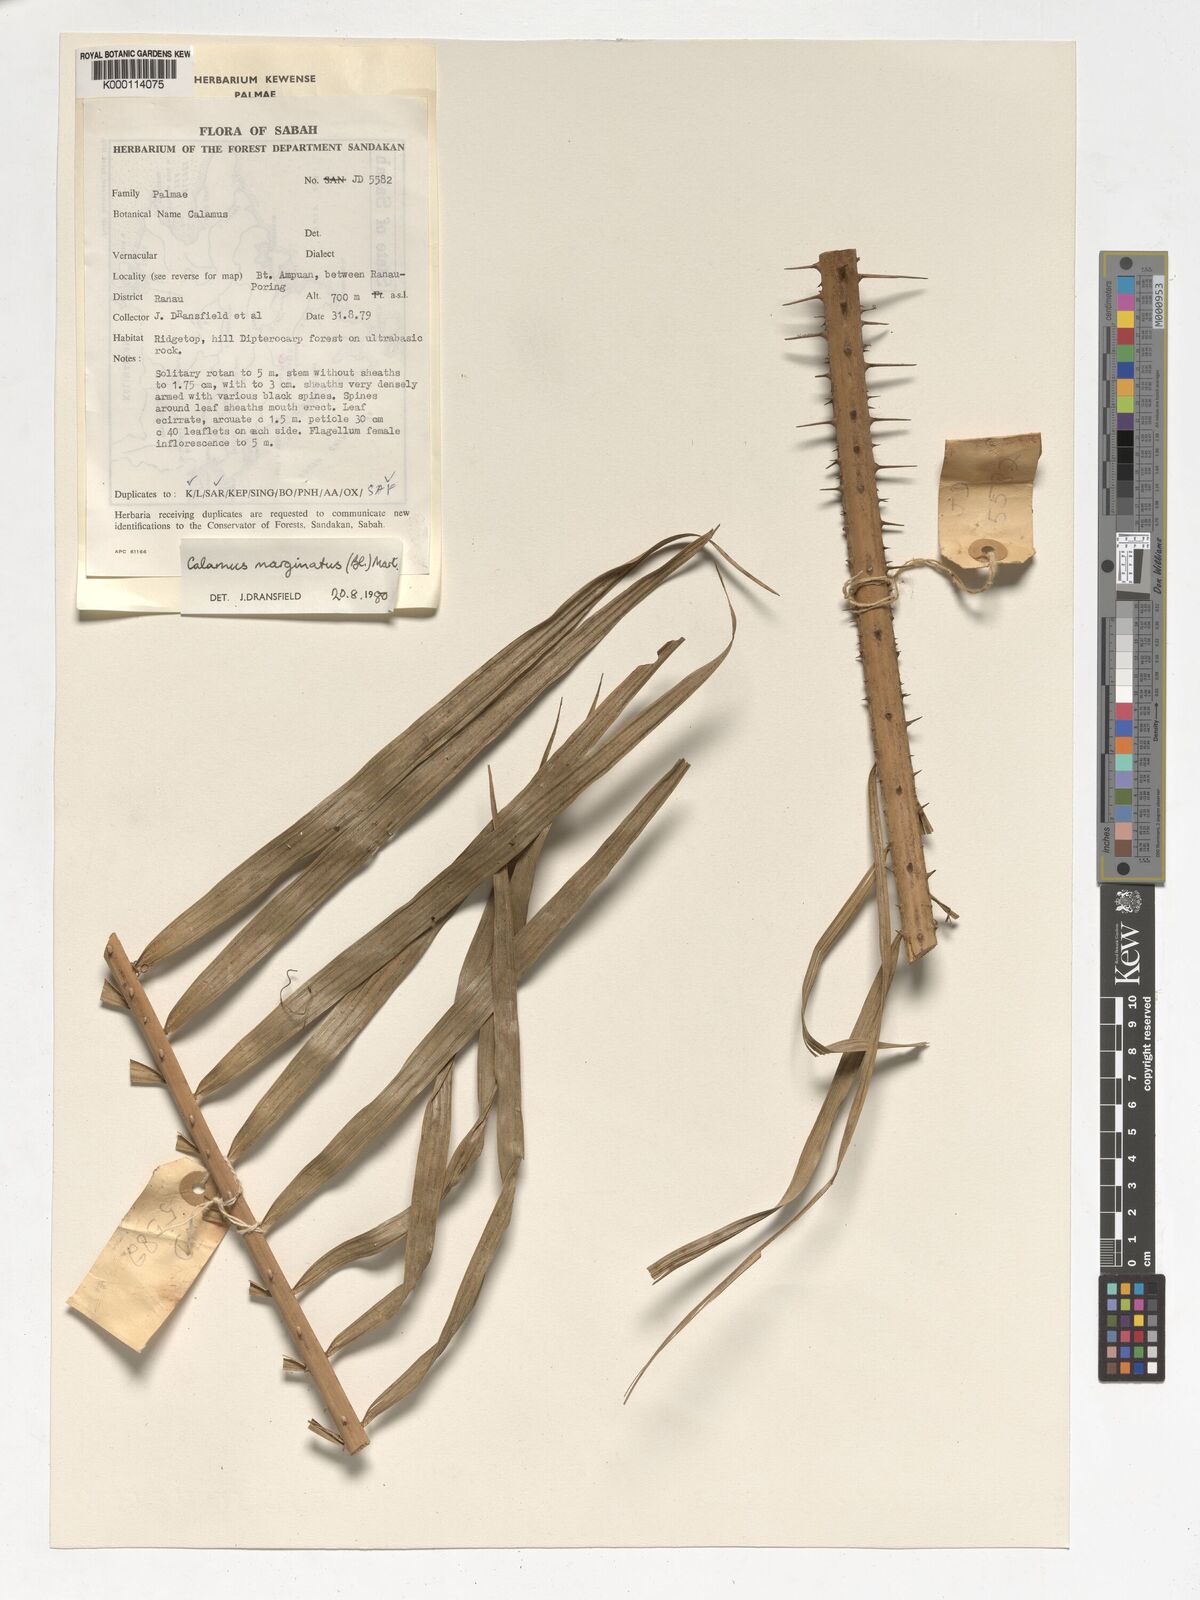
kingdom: Plantae
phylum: Tracheophyta
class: Liliopsida
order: Arecales
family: Arecaceae
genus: Calamus
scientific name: Calamus
